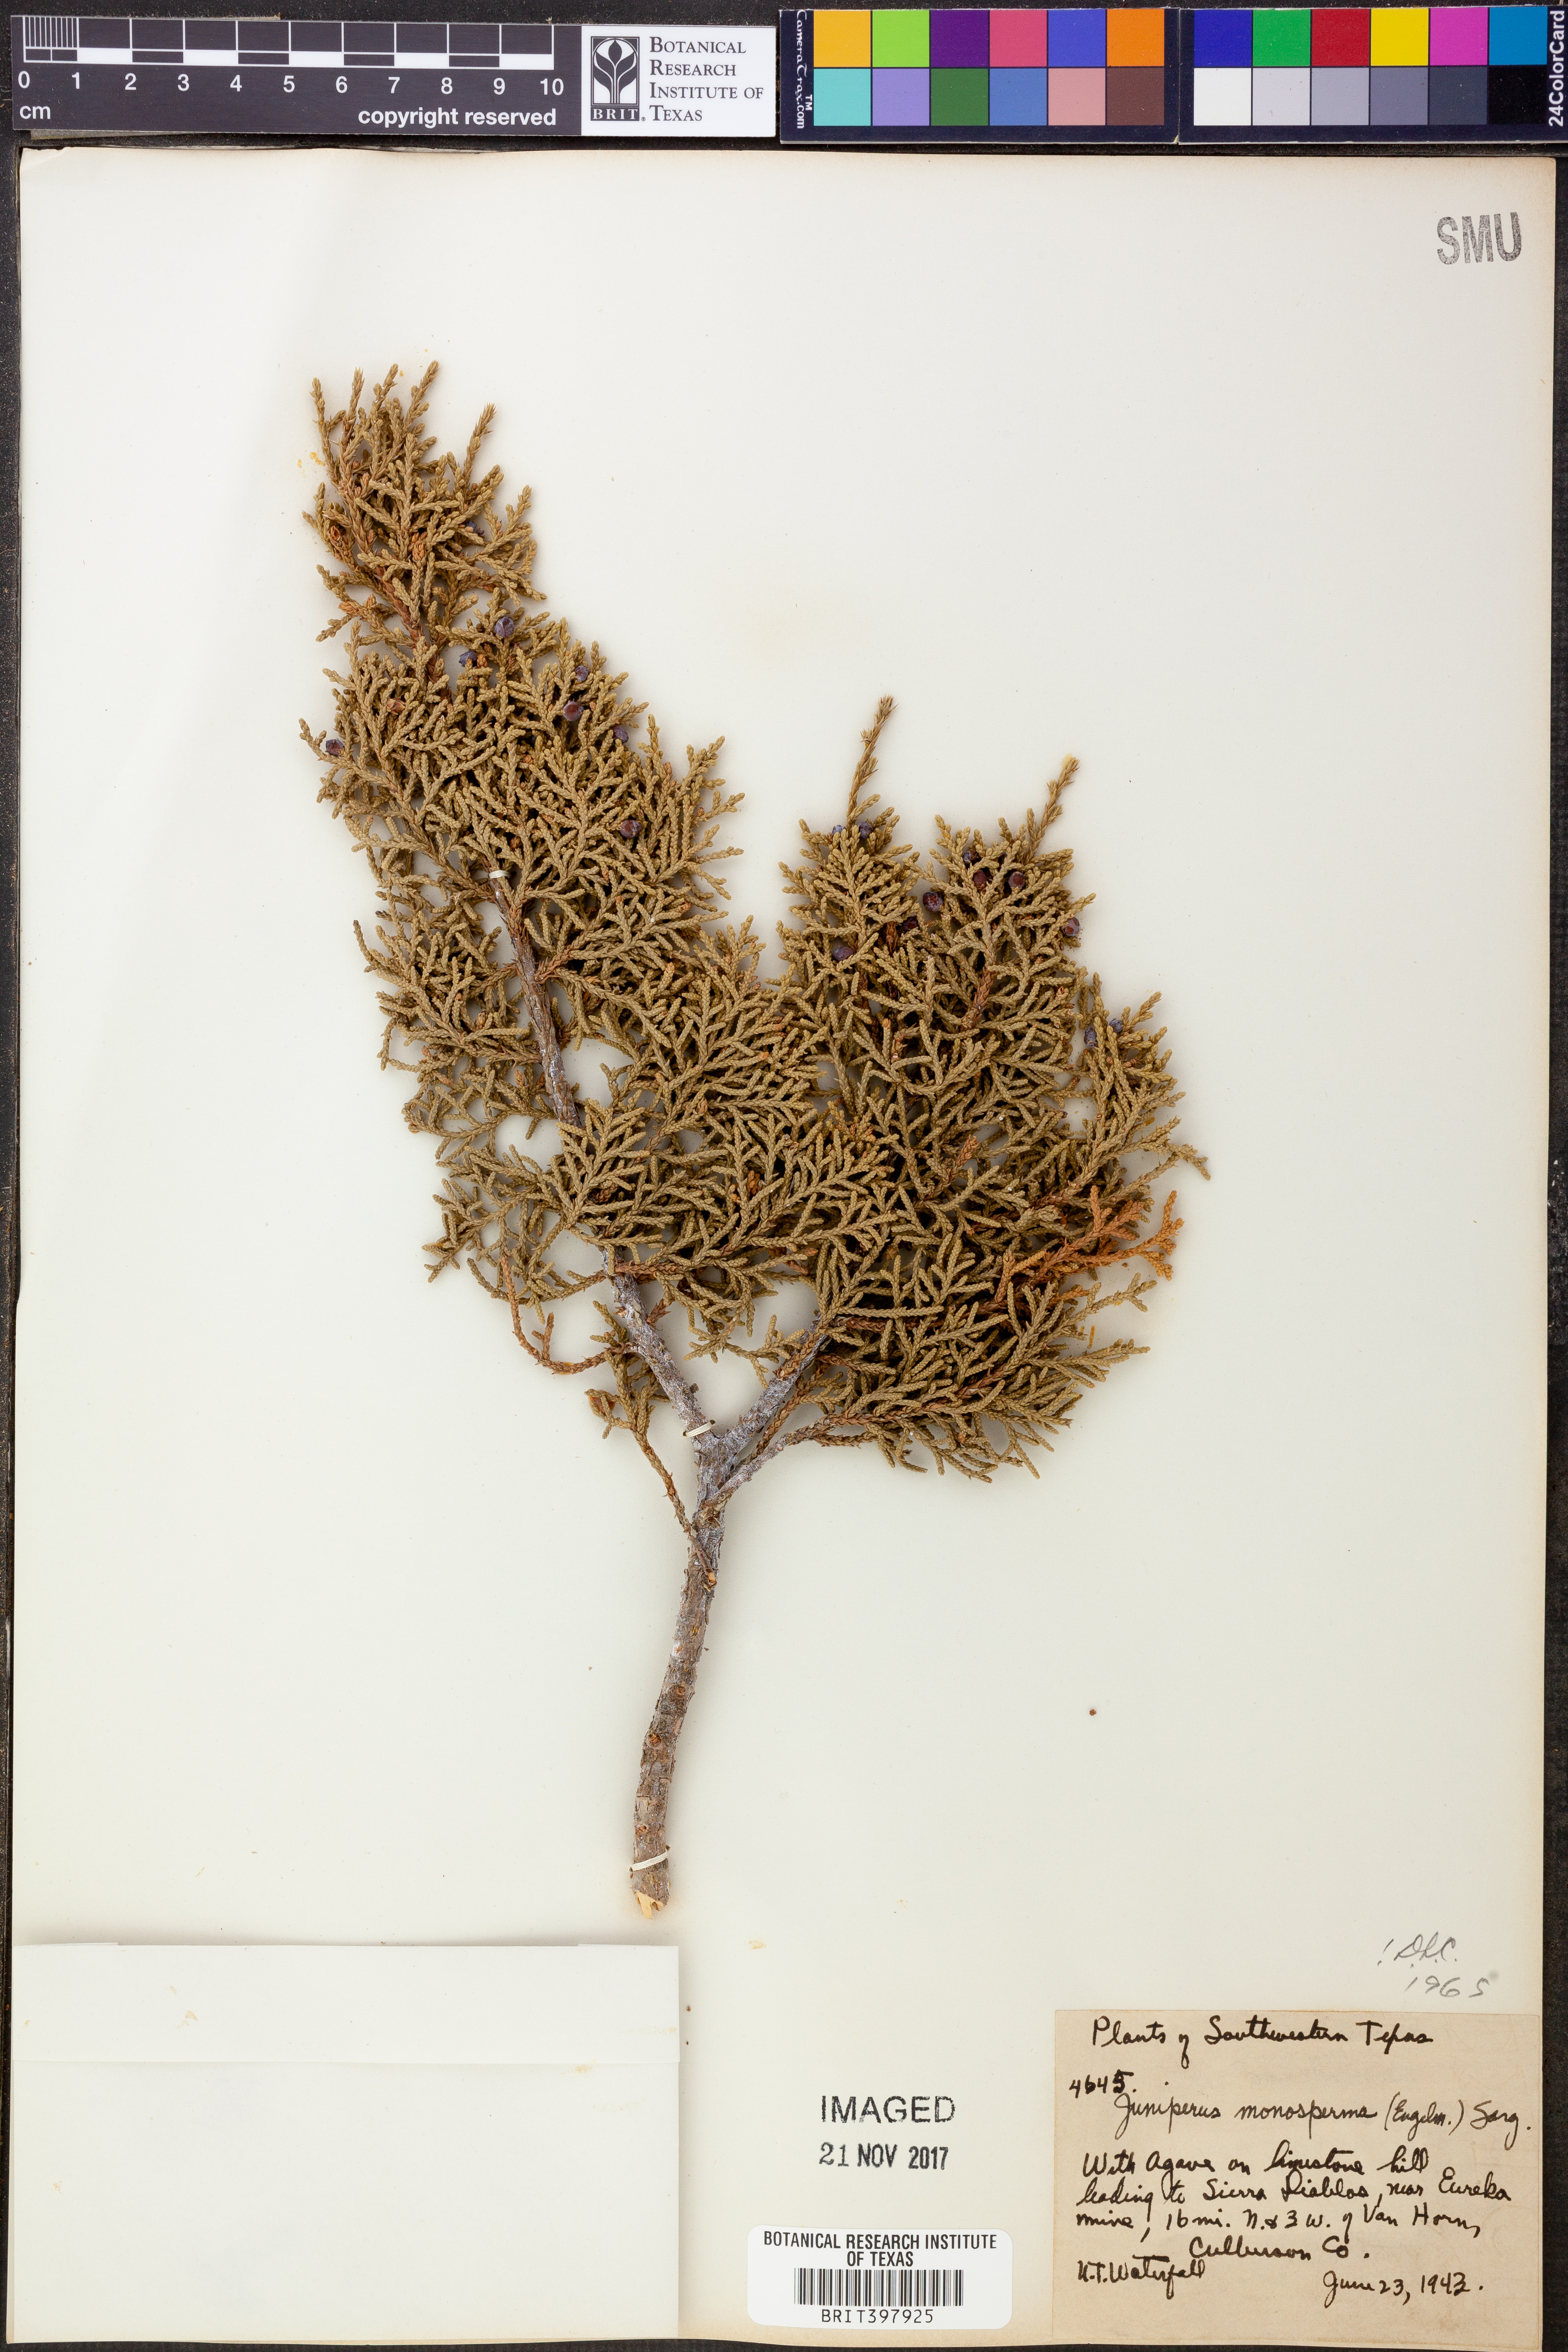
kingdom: Plantae
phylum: Tracheophyta
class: Pinopsida
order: Pinales
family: Cupressaceae
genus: Juniperus
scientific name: Juniperus monosperma
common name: One-seed juniper
